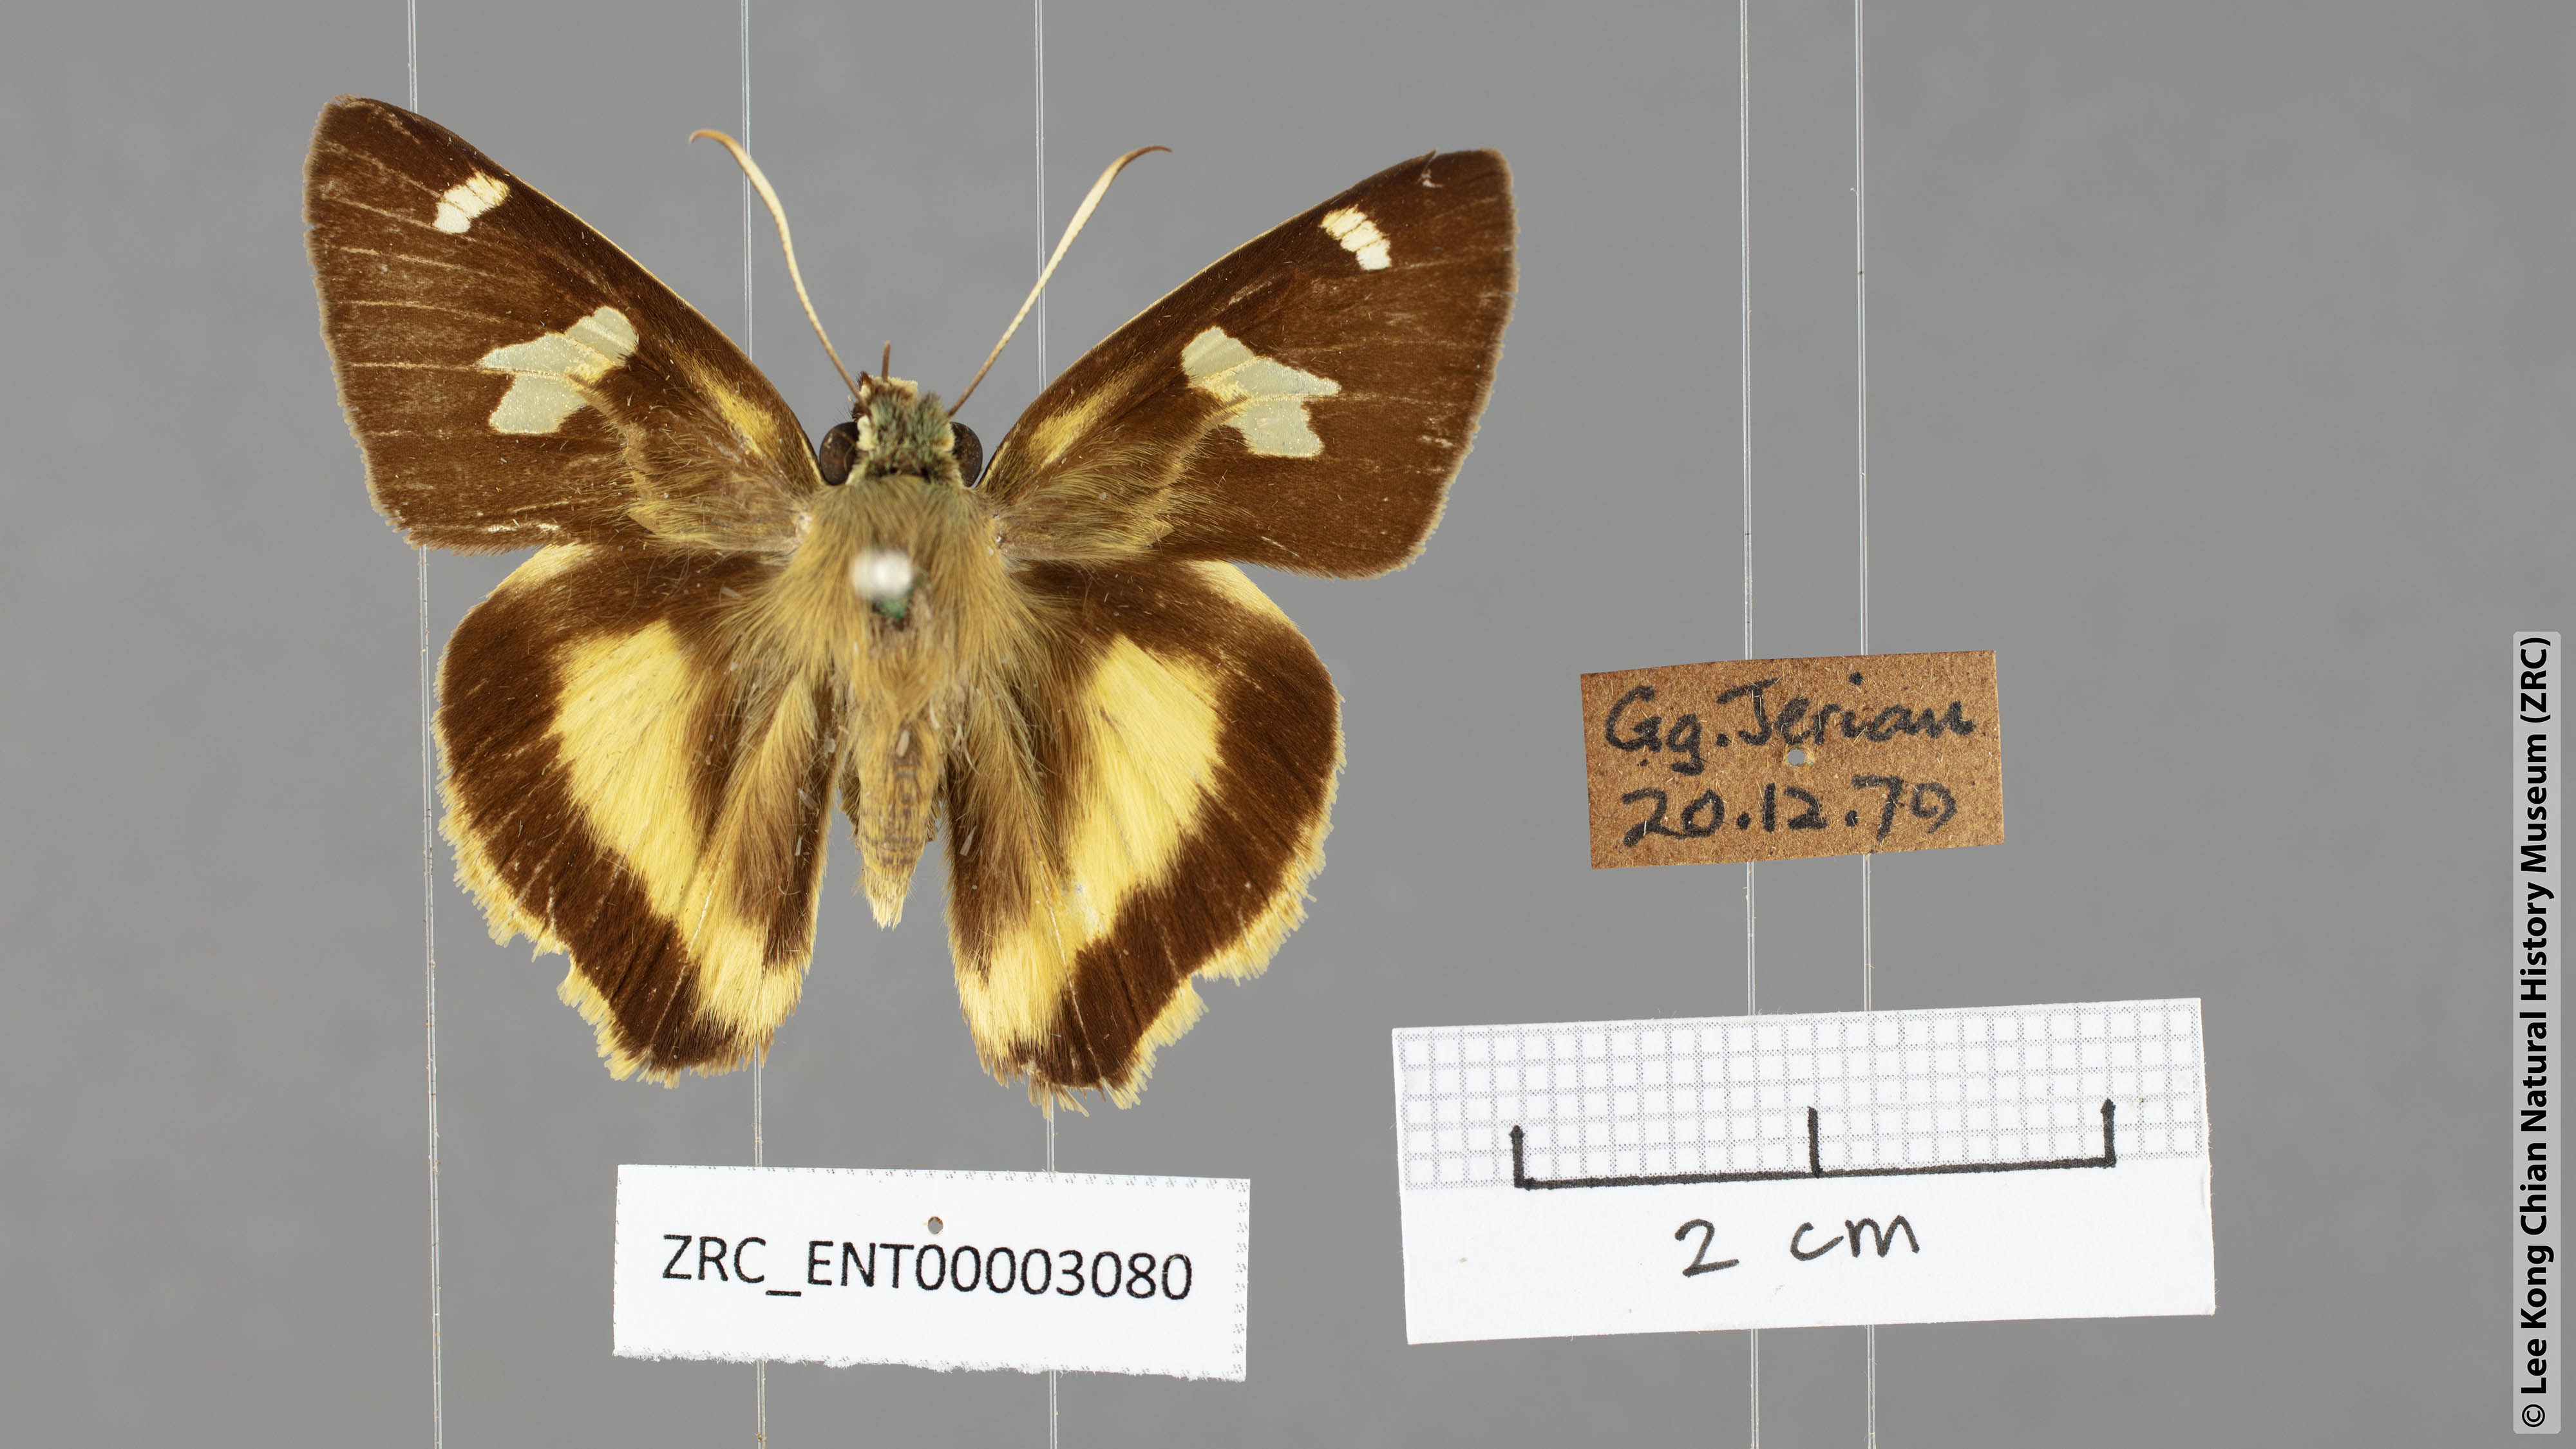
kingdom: Animalia
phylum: Arthropoda
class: Insecta
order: Lepidoptera
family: Hesperiidae
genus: Hasora
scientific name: Hasora schoenherr
